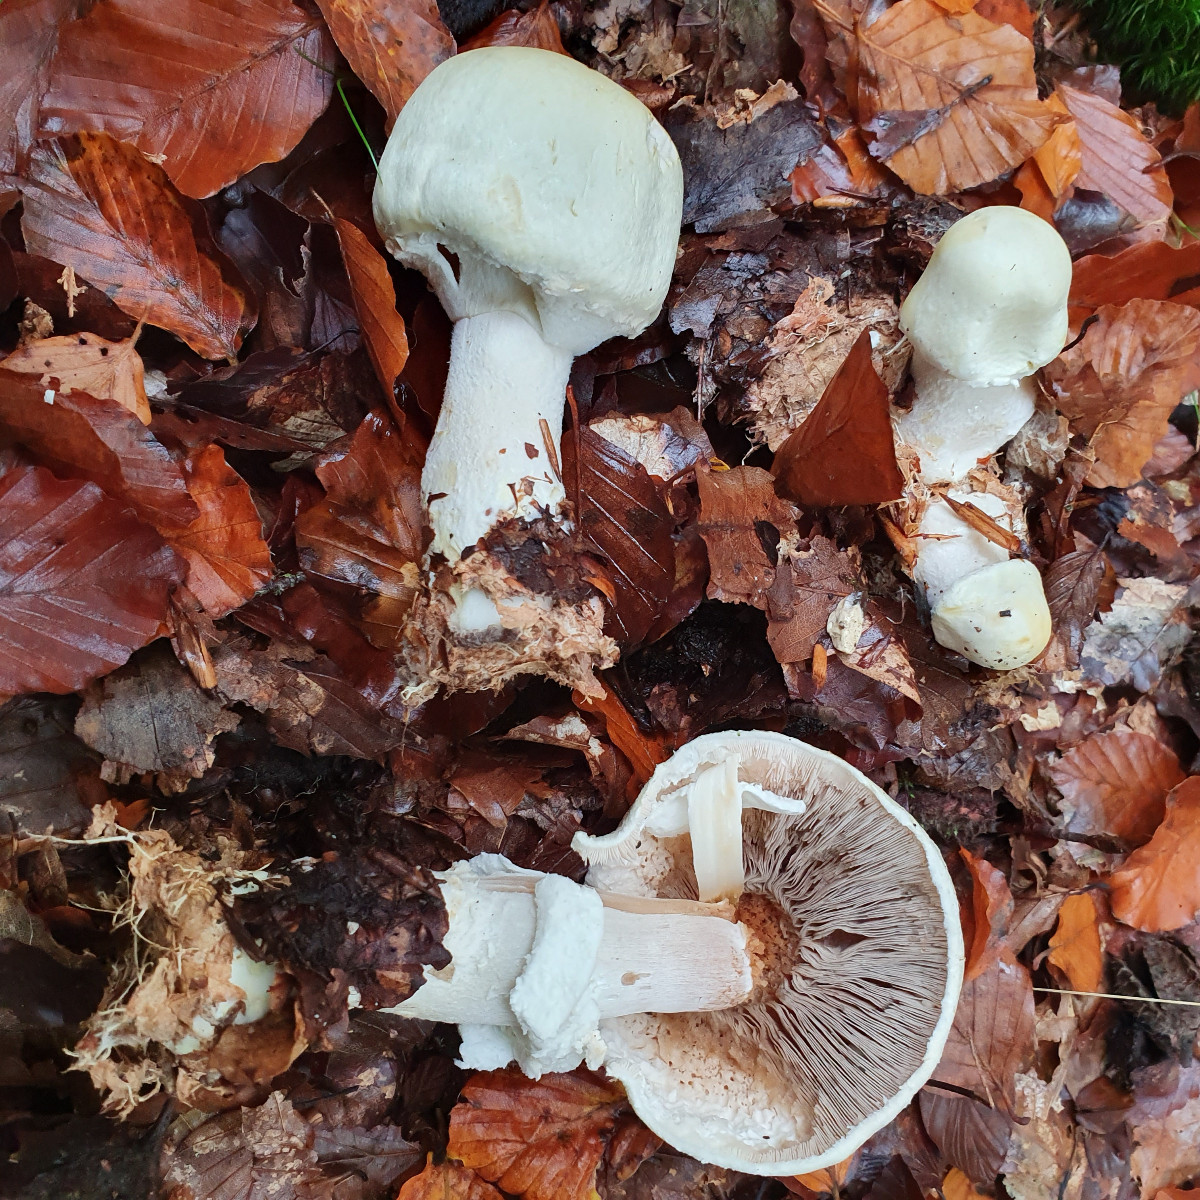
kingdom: Fungi
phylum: Basidiomycota
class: Agaricomycetes
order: Agaricales
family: Agaricaceae
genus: Agaricus
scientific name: Agaricus
